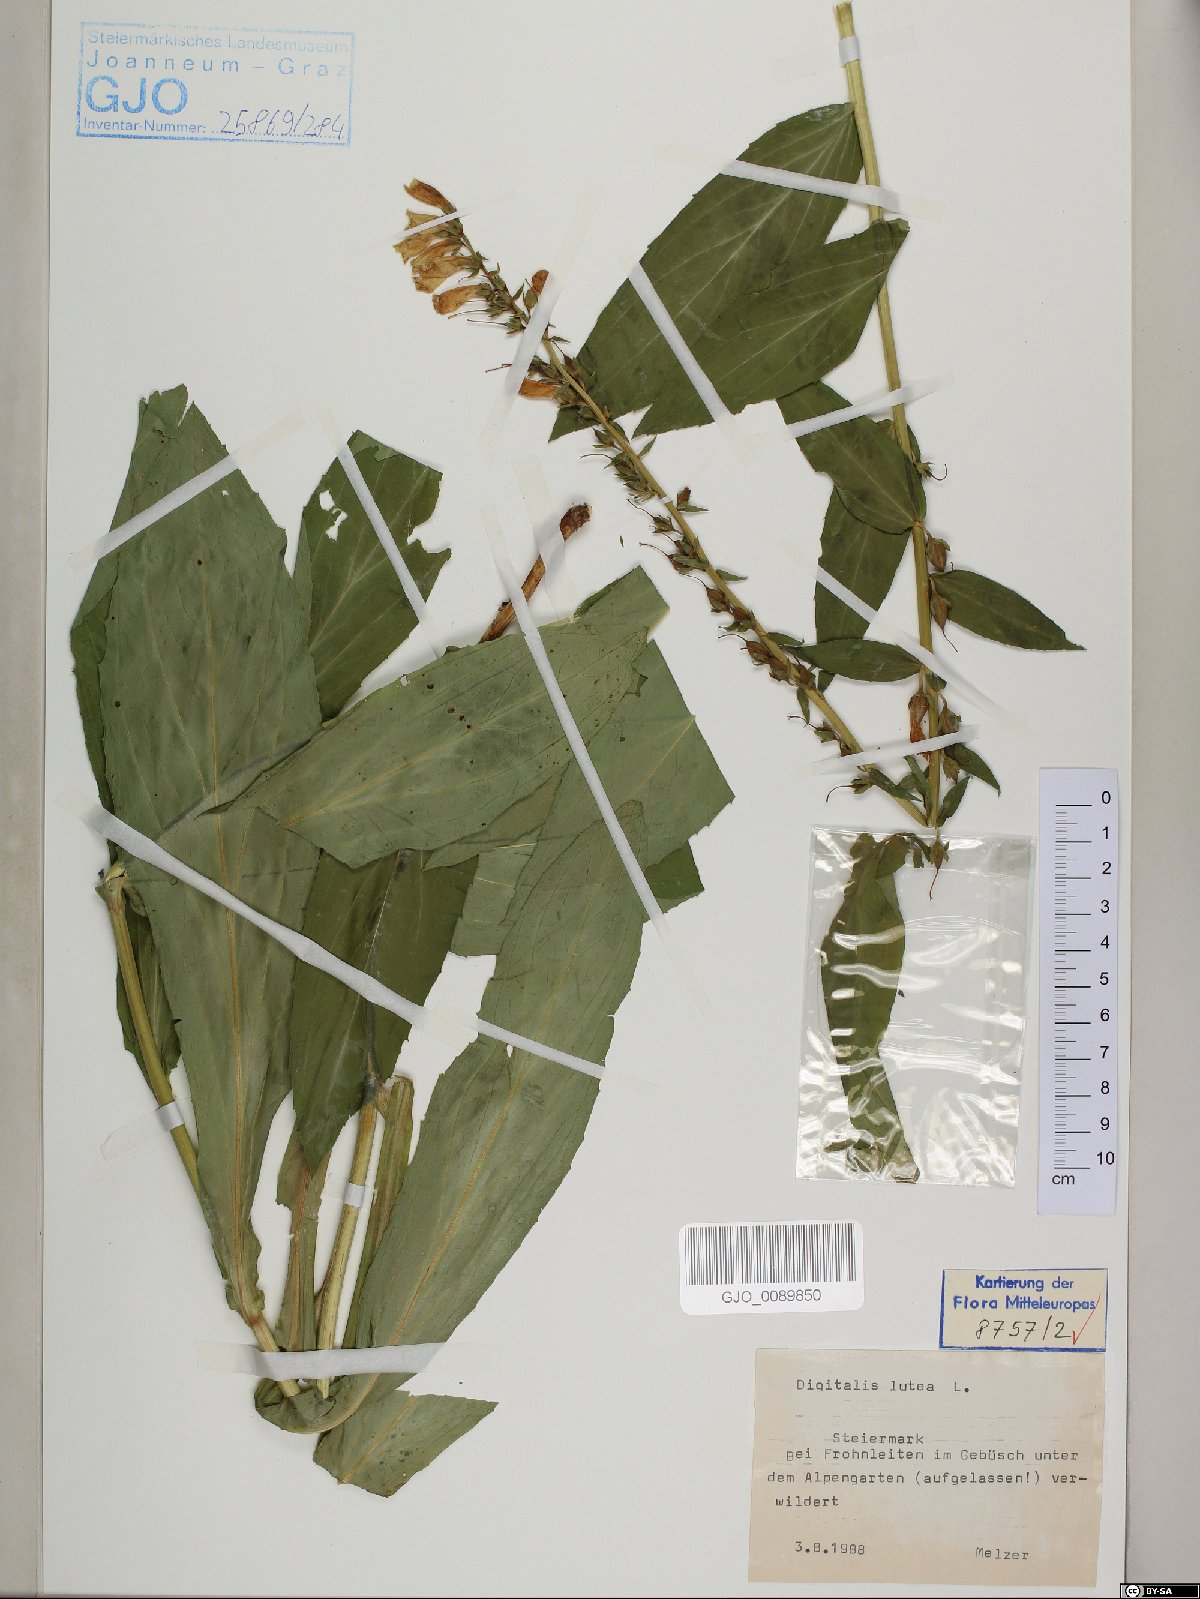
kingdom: Plantae
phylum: Tracheophyta
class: Magnoliopsida
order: Lamiales
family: Plantaginaceae
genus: Digitalis
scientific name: Digitalis lutea
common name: Straw foxglove
